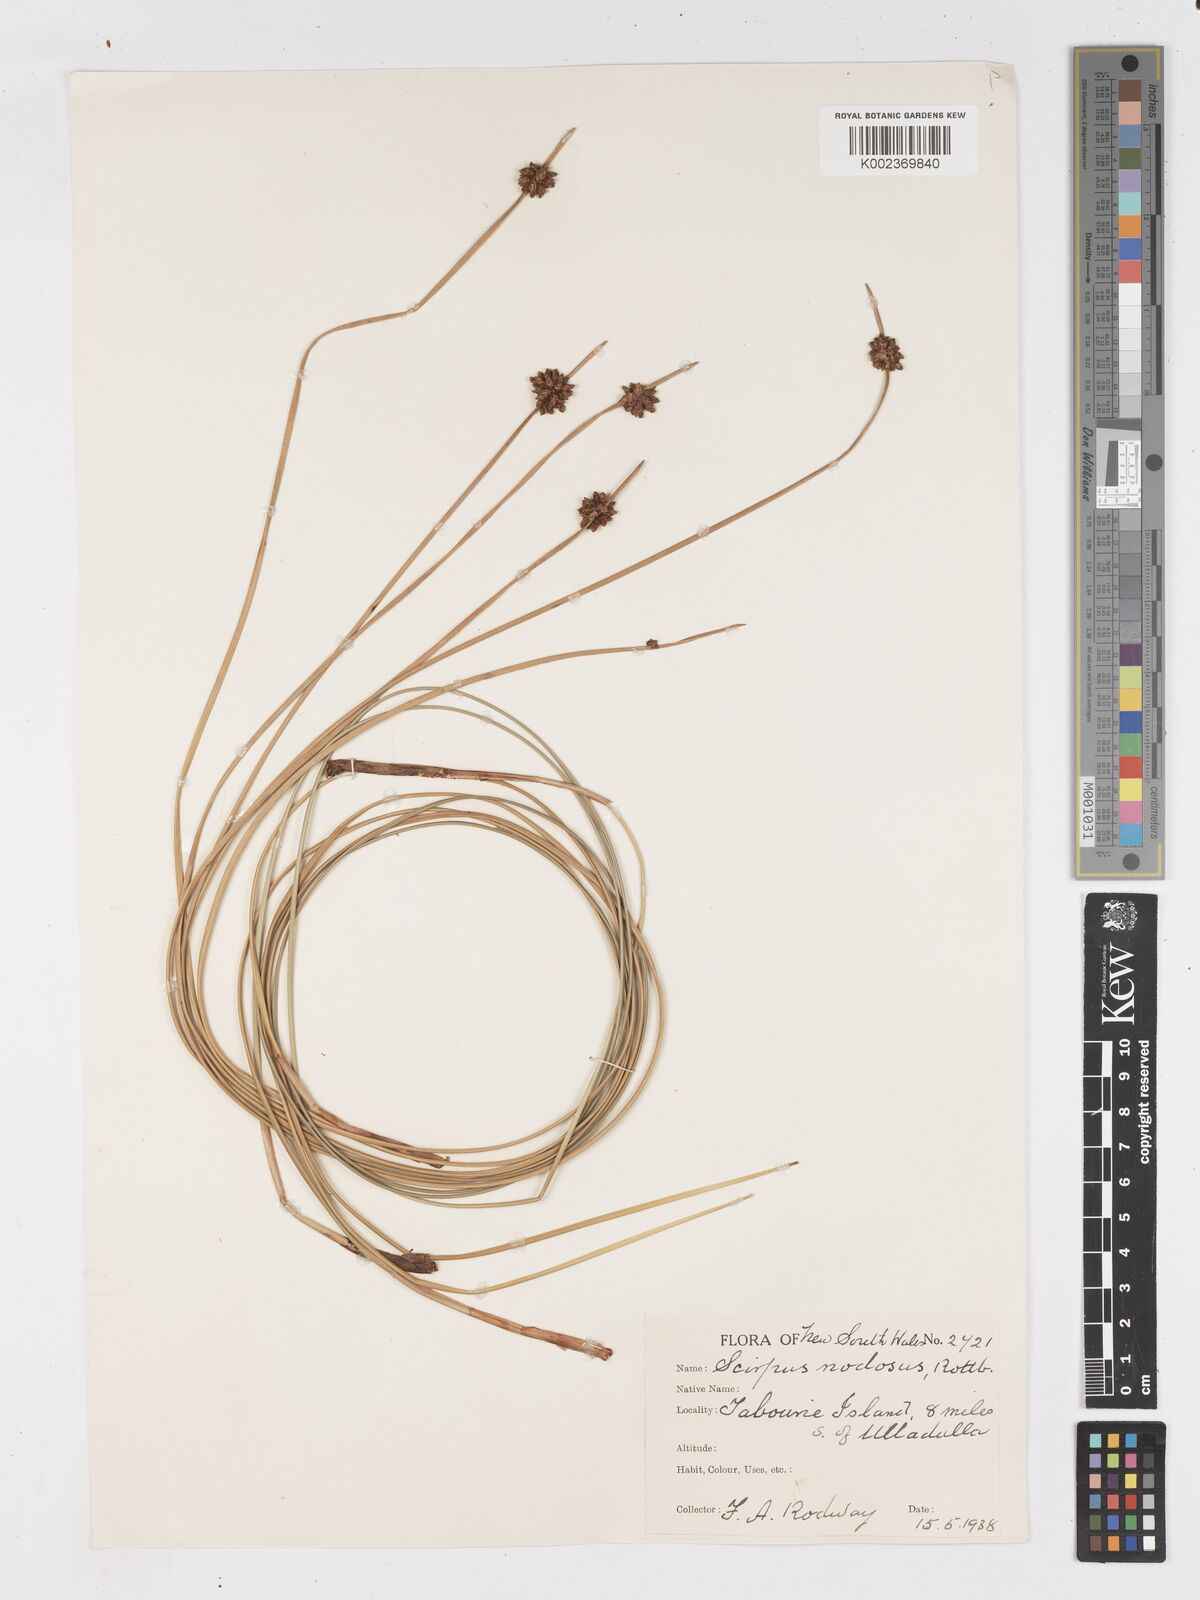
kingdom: Plantae
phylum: Tracheophyta
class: Liliopsida
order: Poales
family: Cyperaceae
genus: Ficinia
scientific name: Ficinia nodosa
